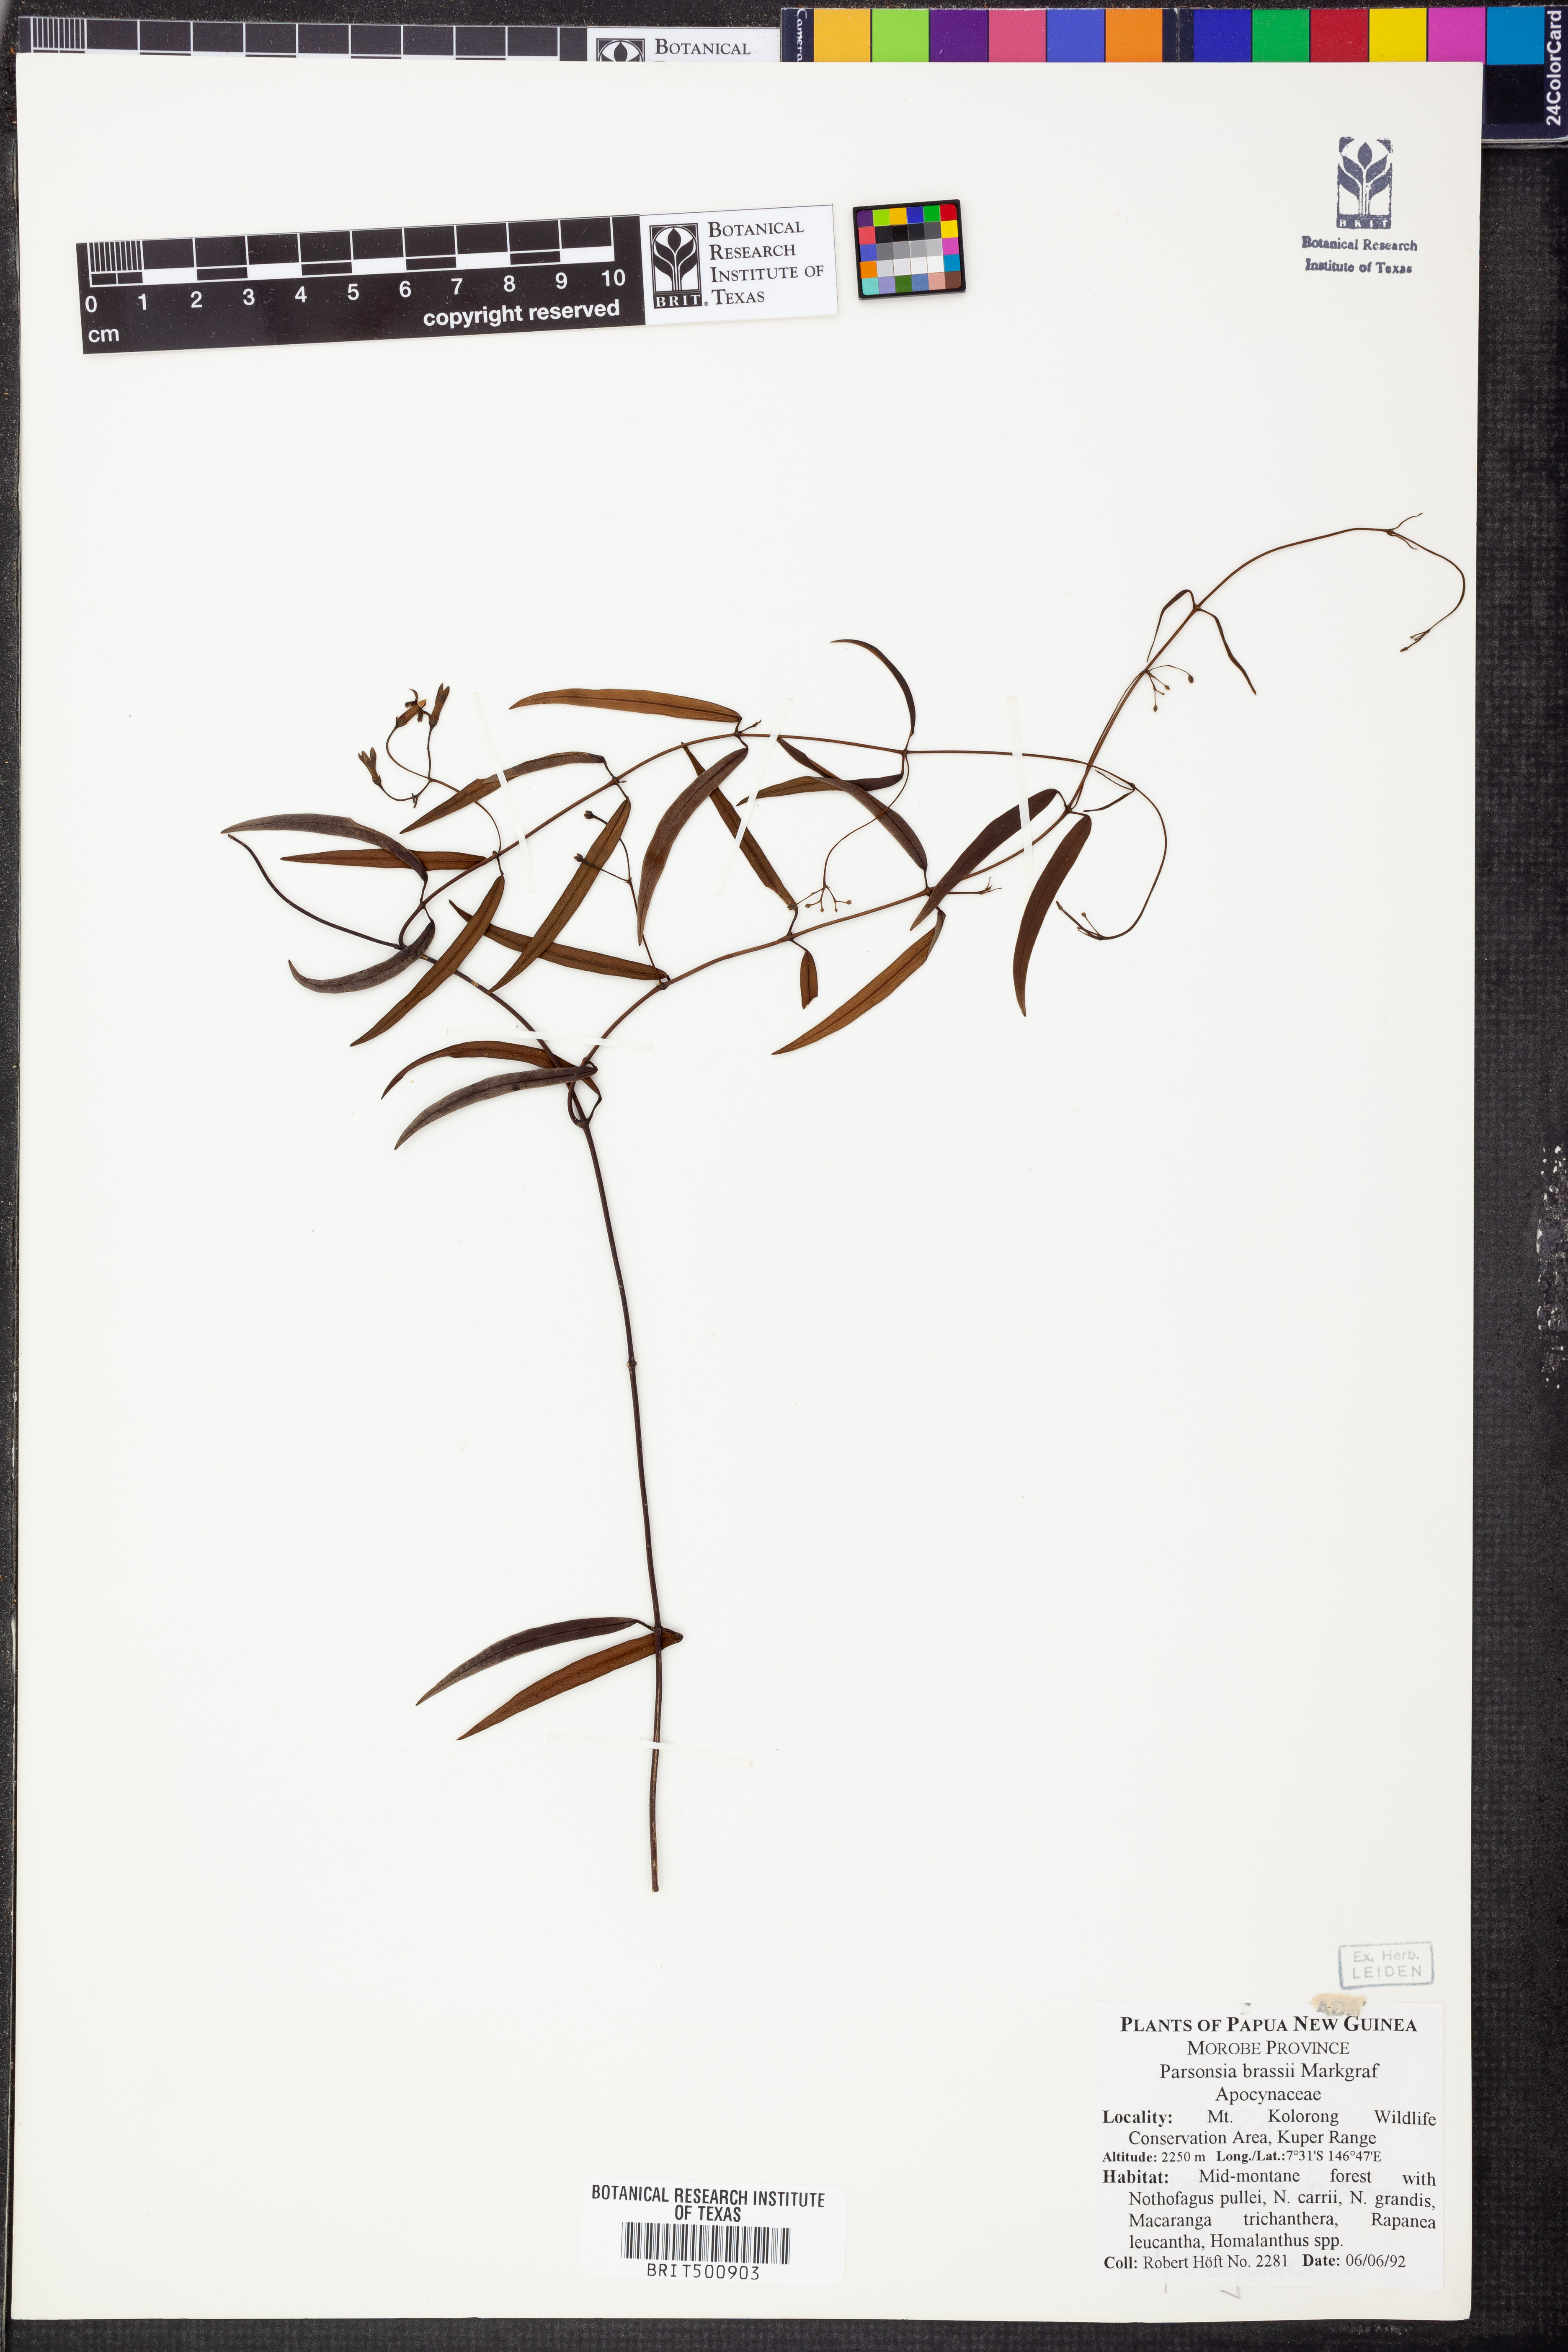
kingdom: Plantae
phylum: Tracheophyta
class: Magnoliopsida
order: Gentianales
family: Apocynaceae
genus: Parsonsia
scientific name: Parsonsia sanguinea
